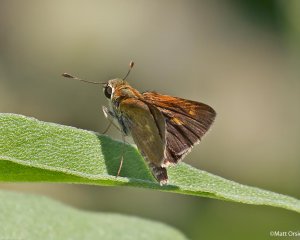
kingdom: Animalia
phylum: Arthropoda
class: Insecta
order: Lepidoptera
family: Hesperiidae
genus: Polites
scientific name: Polites egeremet
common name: Northern Broken-Dash
